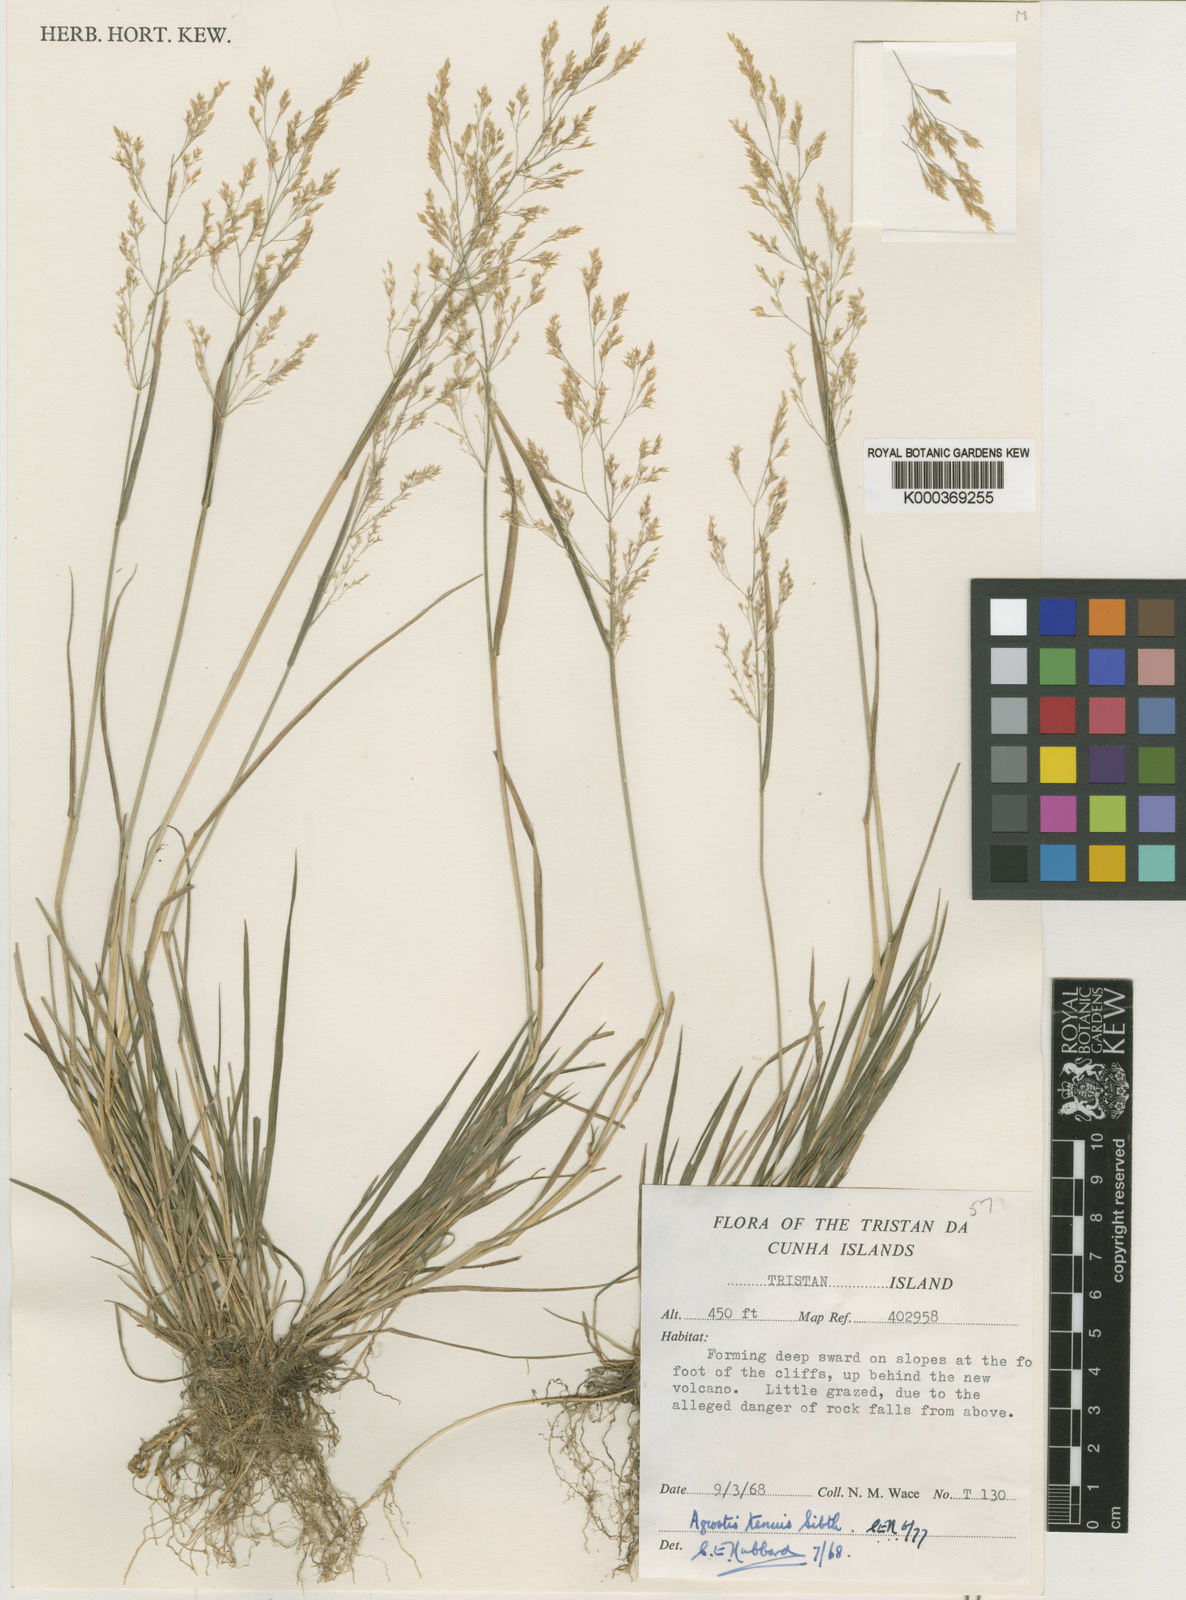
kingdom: Plantae
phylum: Tracheophyta
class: Liliopsida
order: Poales
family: Poaceae
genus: Agrostis
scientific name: Agrostis capillaris
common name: Colonial bentgrass
